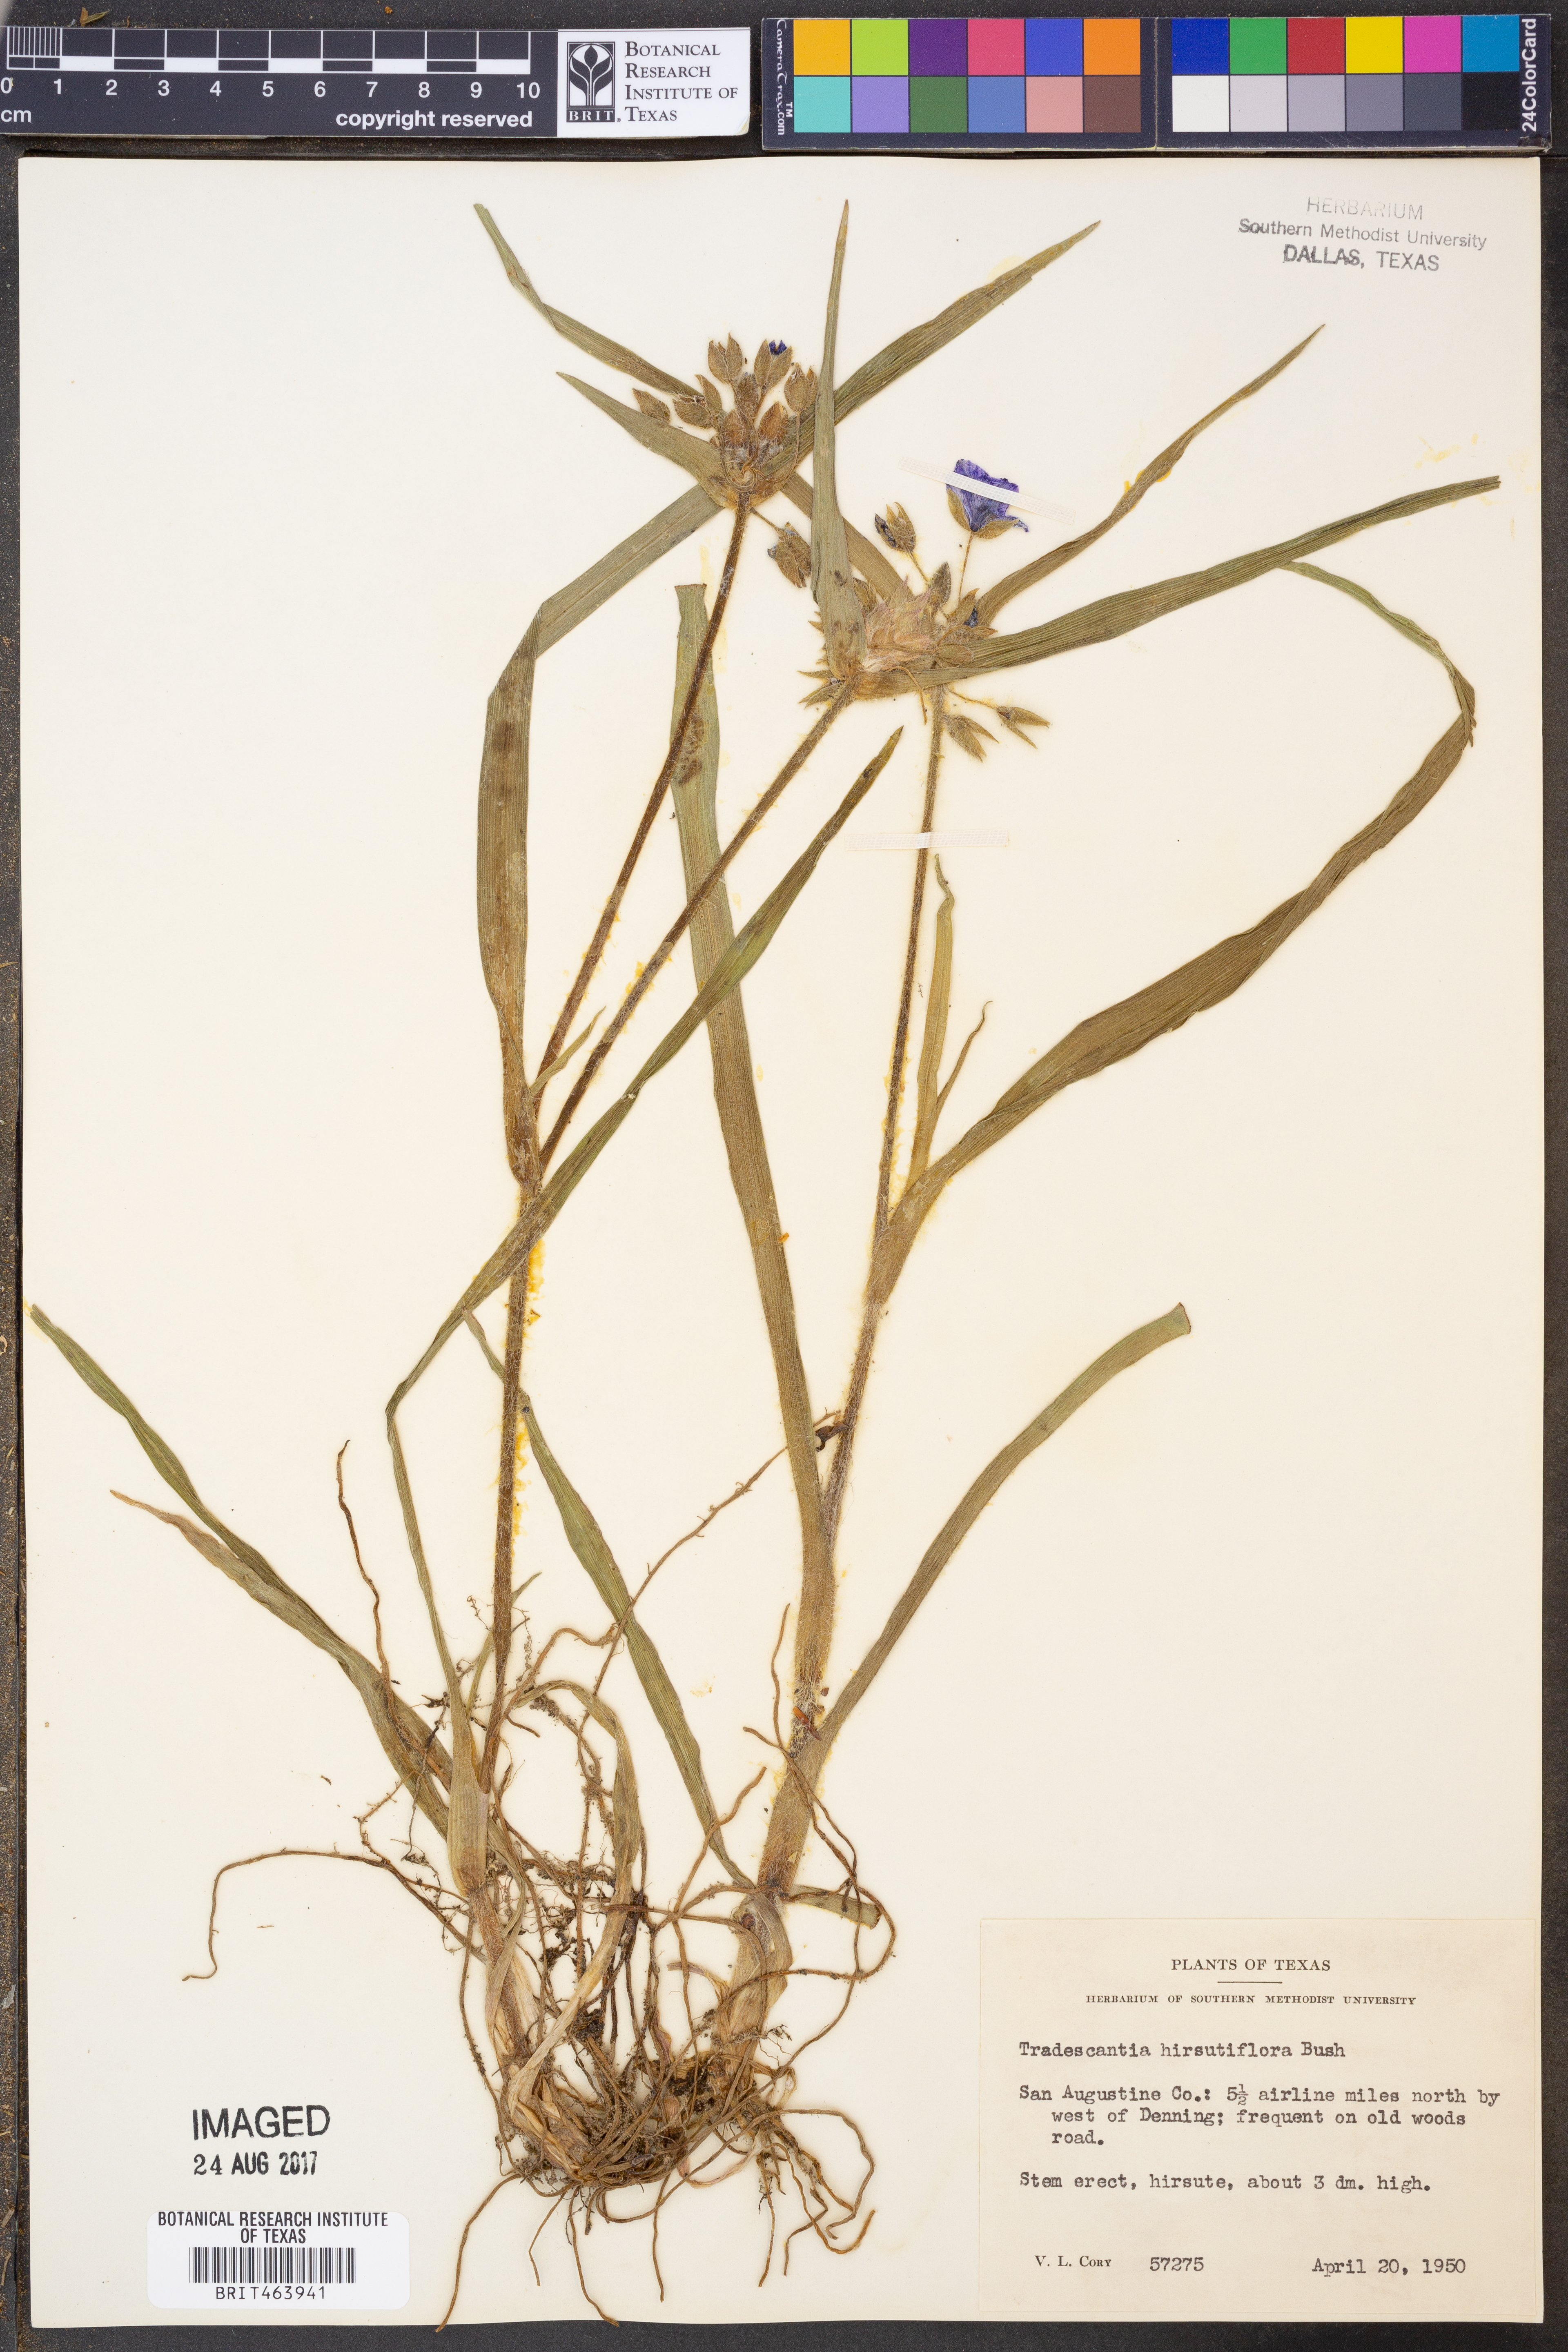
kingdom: Plantae
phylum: Tracheophyta
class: Liliopsida
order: Commelinales
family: Commelinaceae
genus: Tradescantia
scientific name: Tradescantia hirsutiflora
